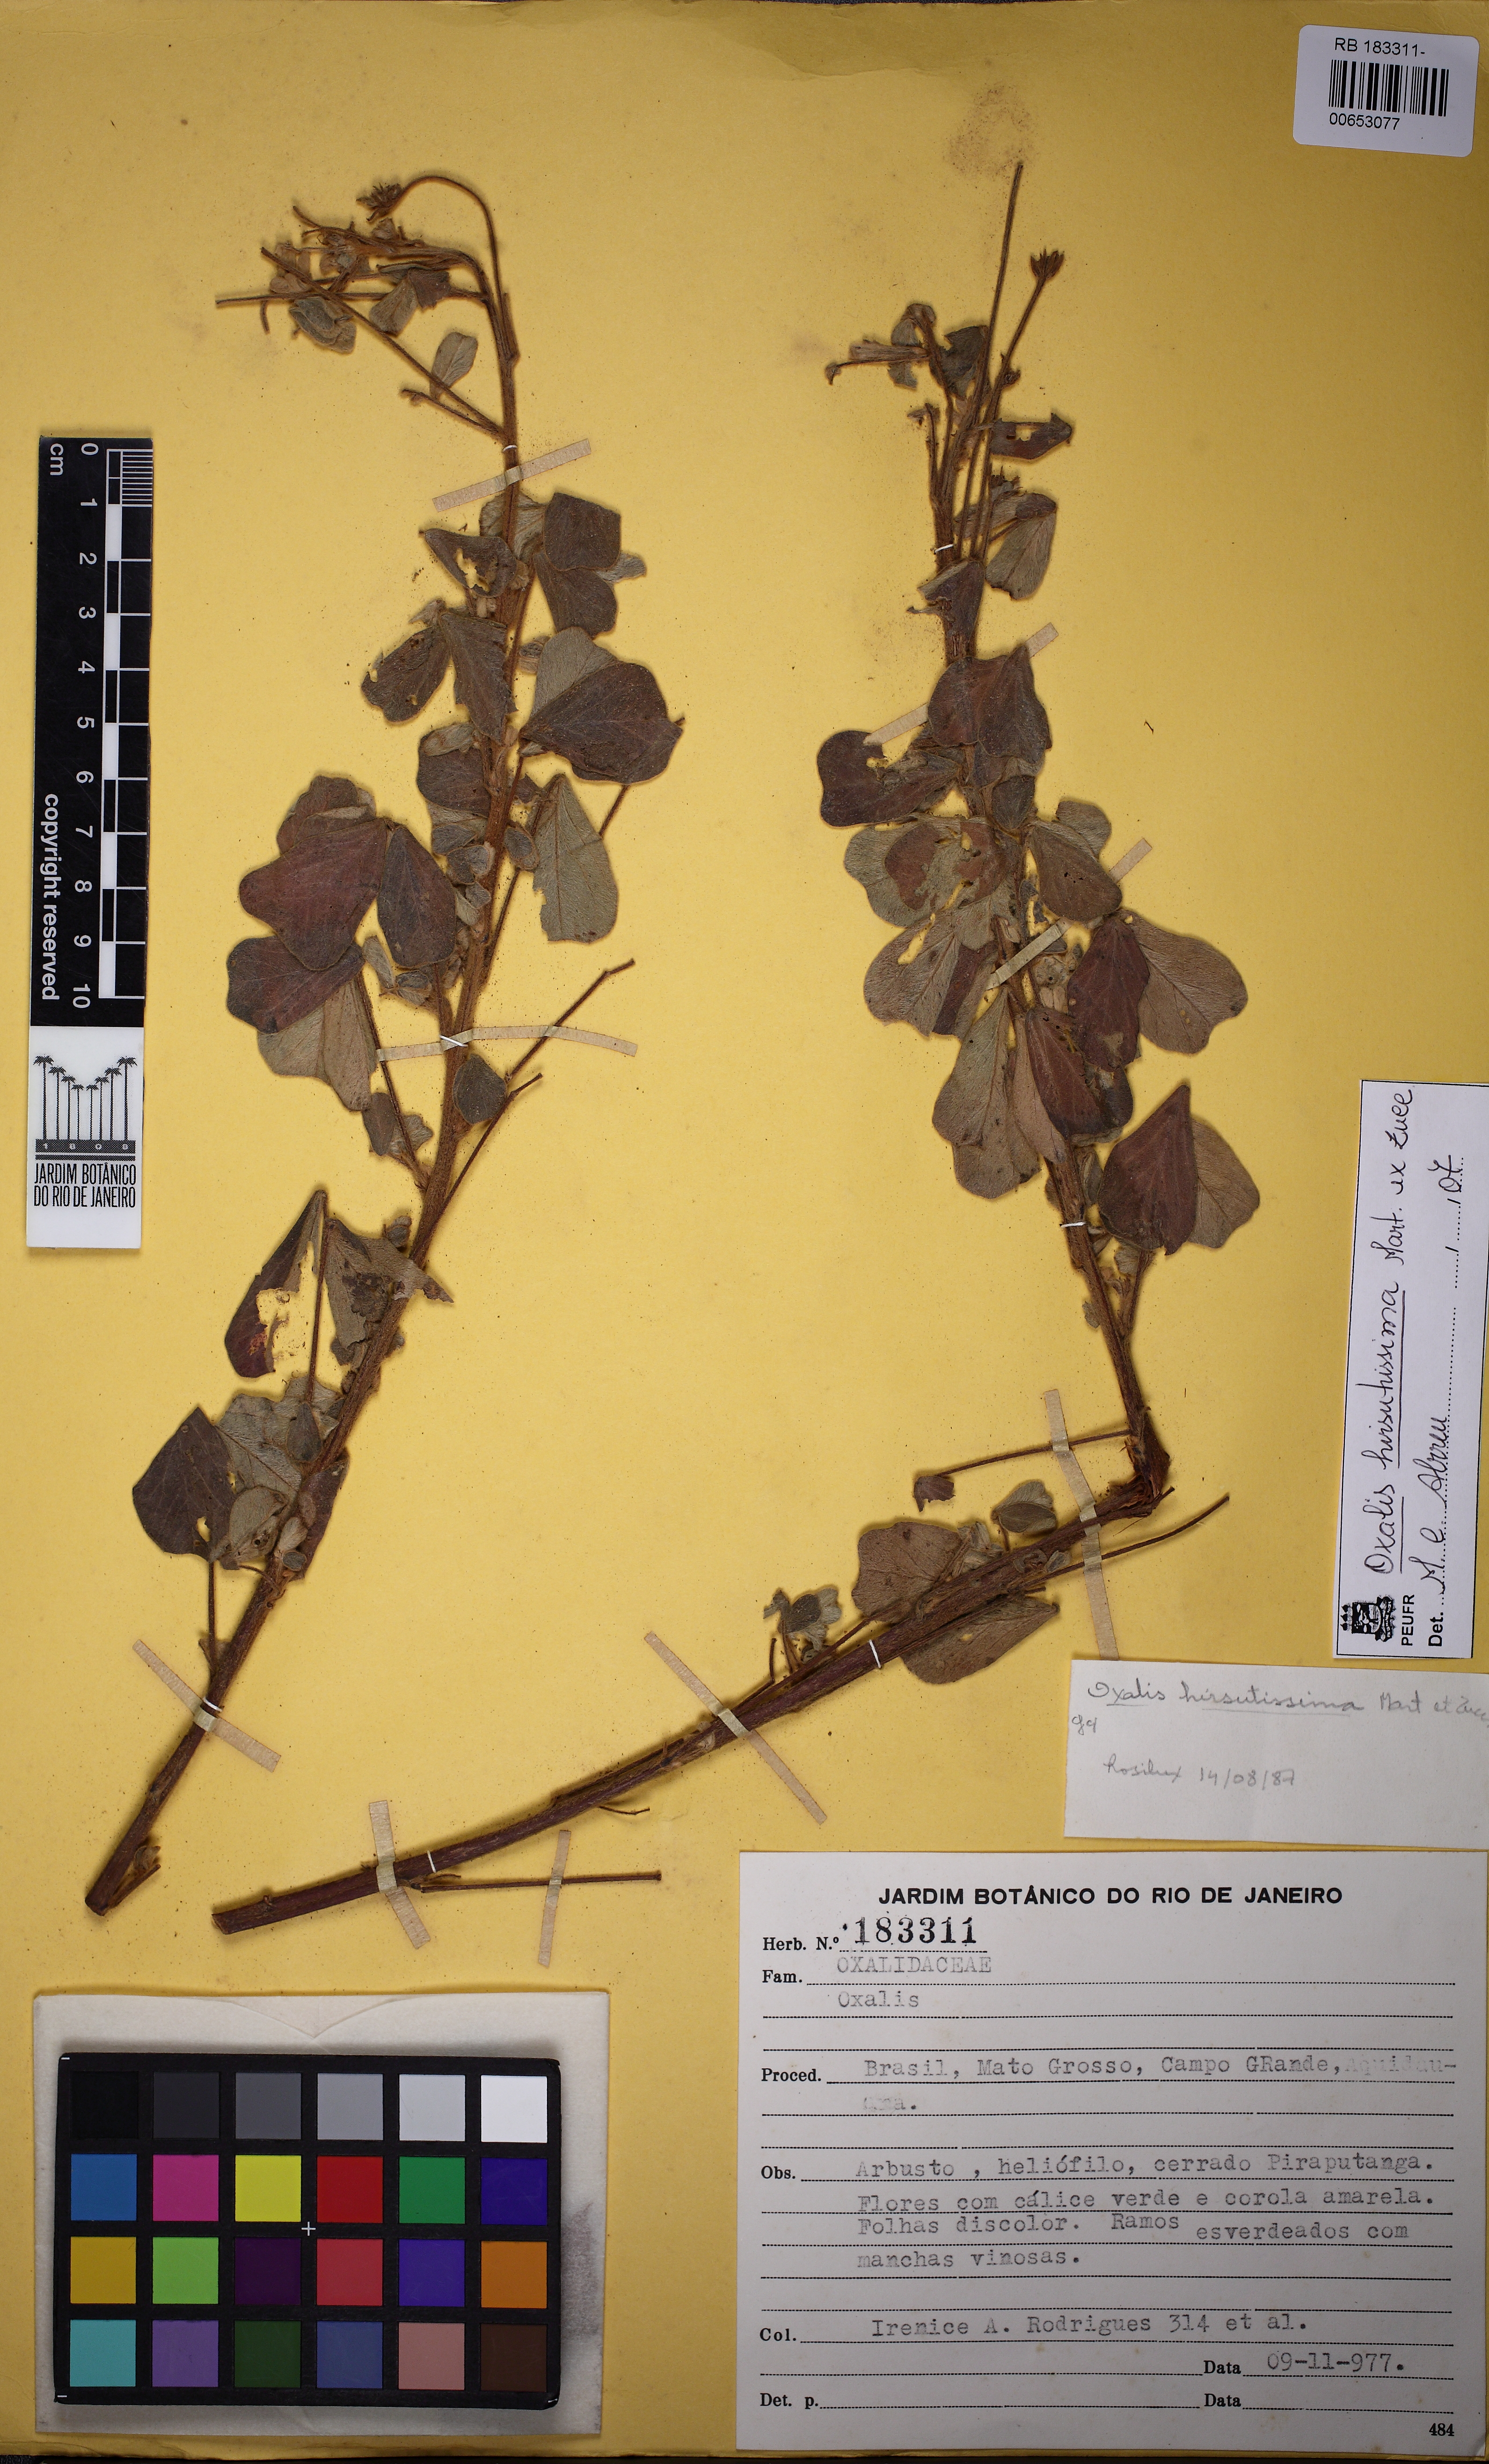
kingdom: Plantae
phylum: Tracheophyta
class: Magnoliopsida
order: Oxalidales
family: Oxalidaceae
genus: Oxalis
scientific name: Oxalis hirsutissima
